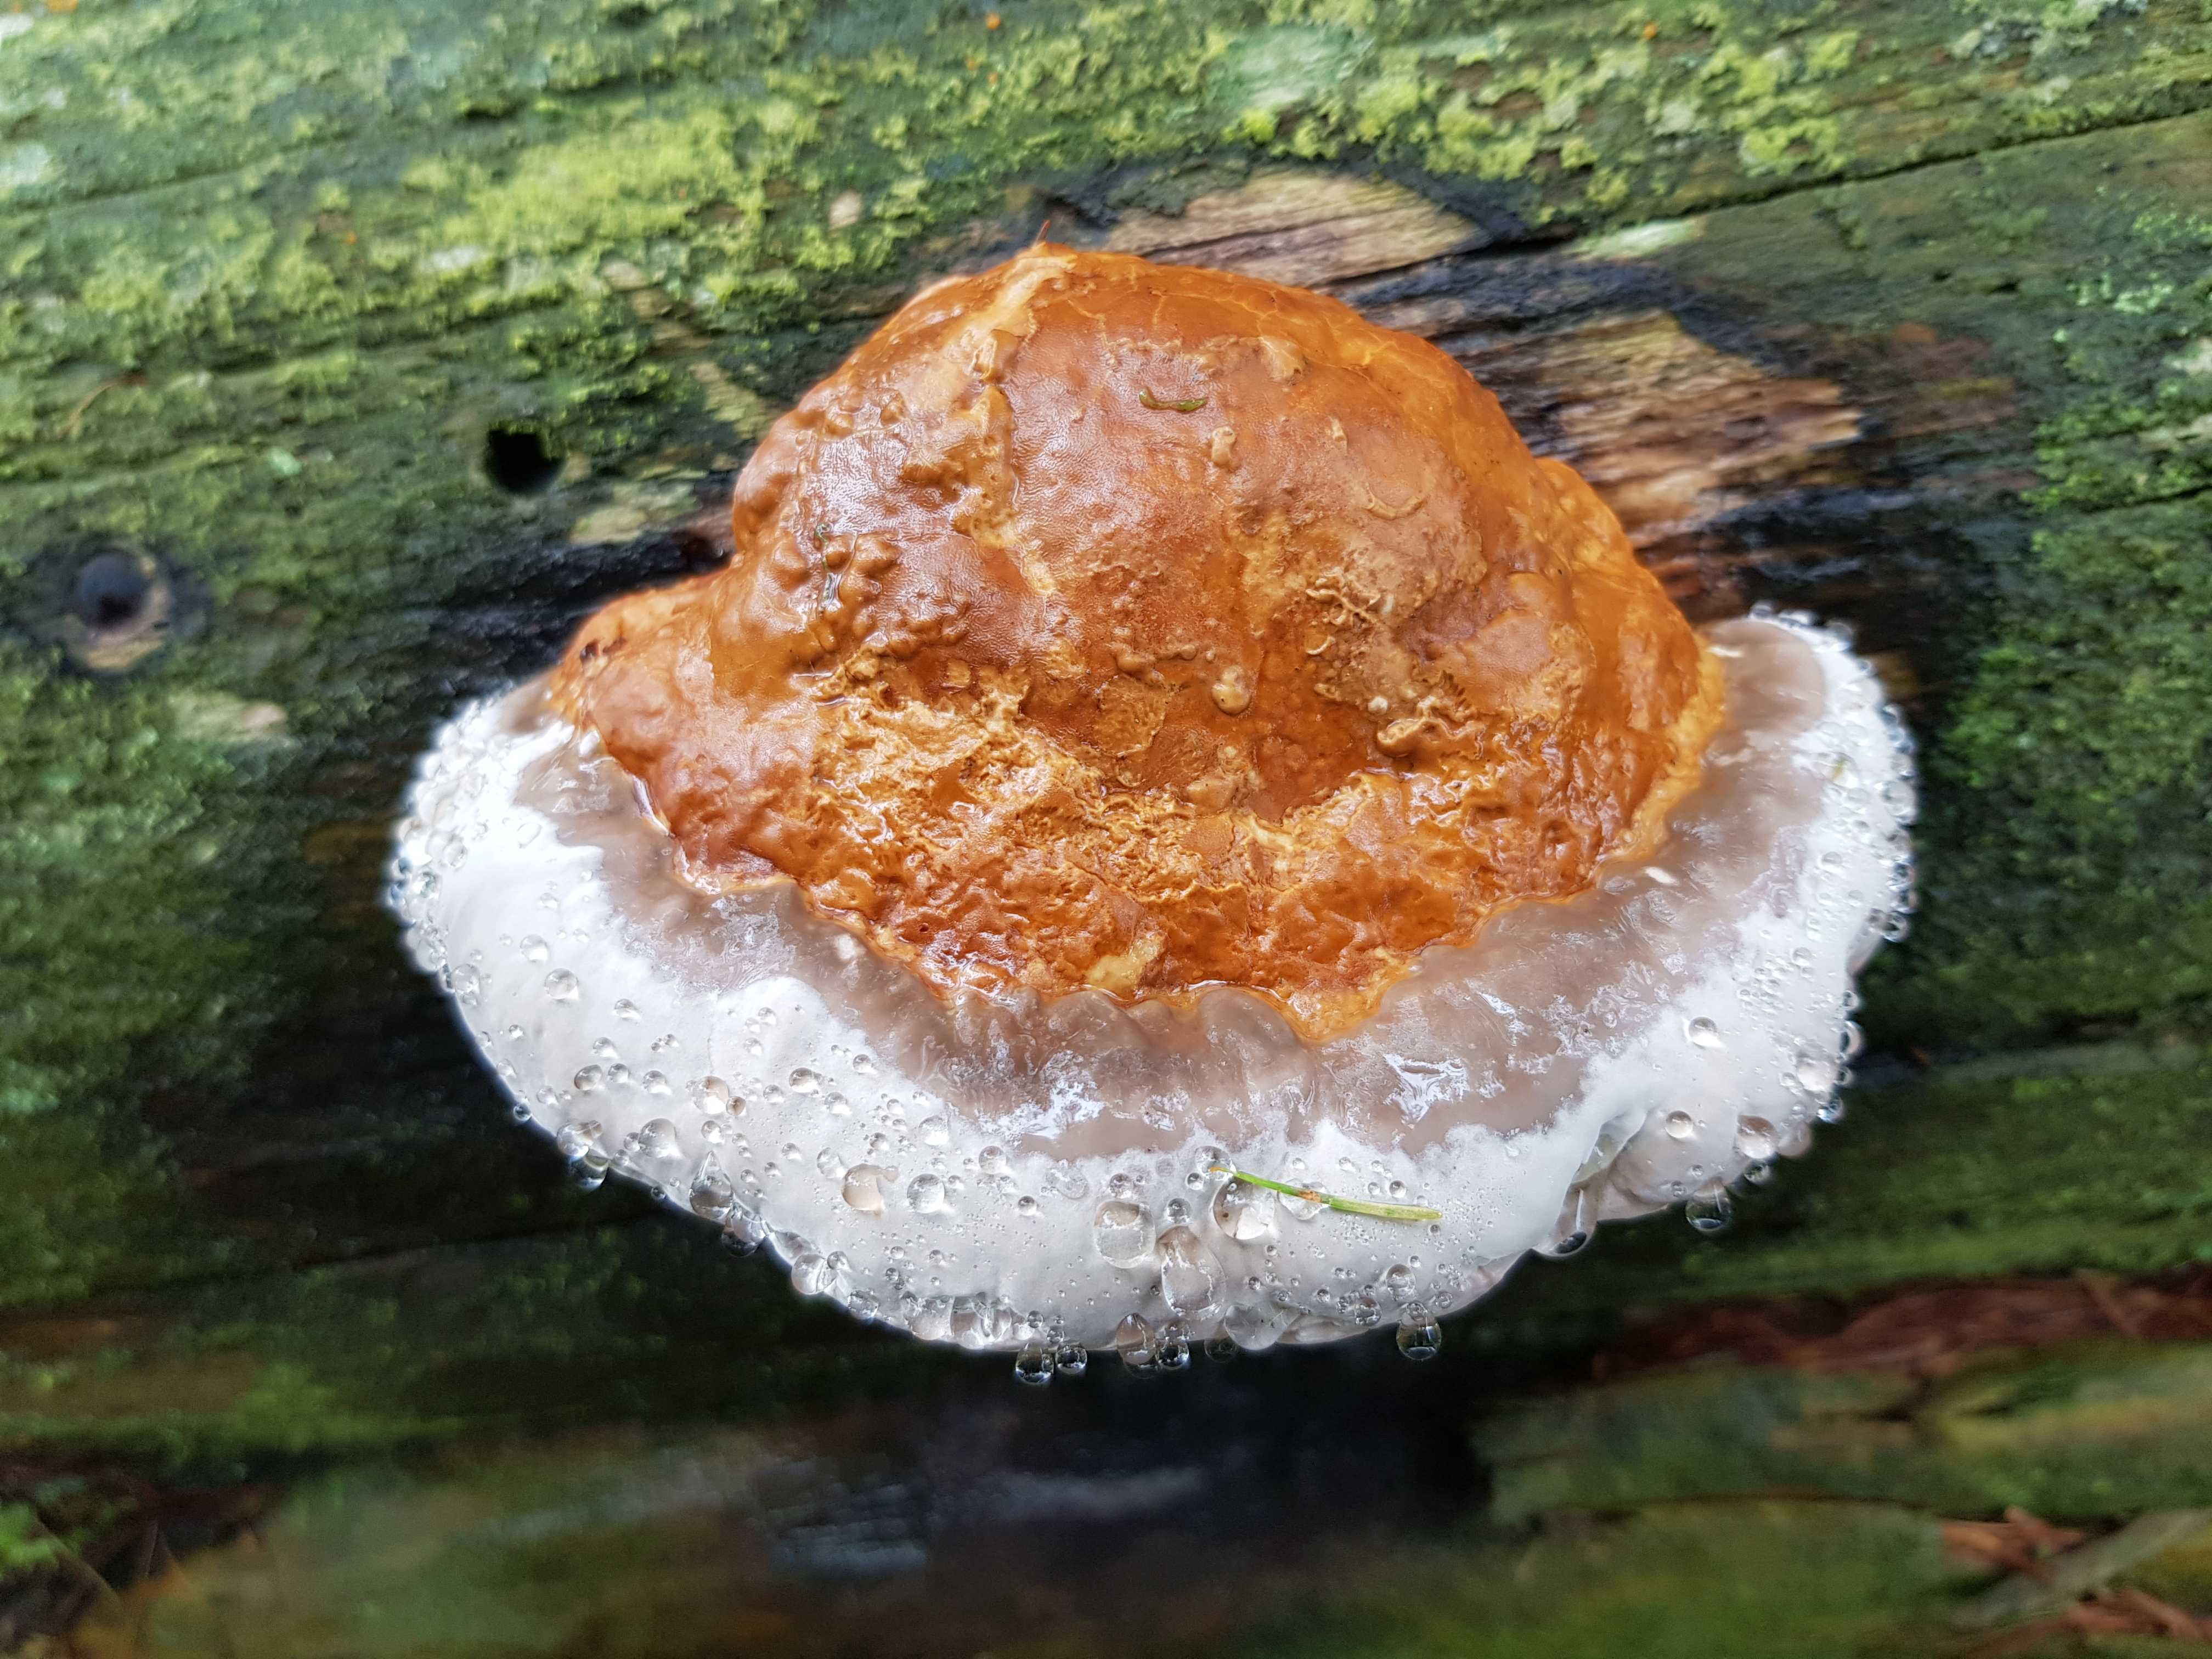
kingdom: Fungi
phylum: Basidiomycota
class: Agaricomycetes
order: Polyporales
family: Fomitopsidaceae
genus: Fomitopsis
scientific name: Fomitopsis pinicola
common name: randbæltet hovporesvamp
